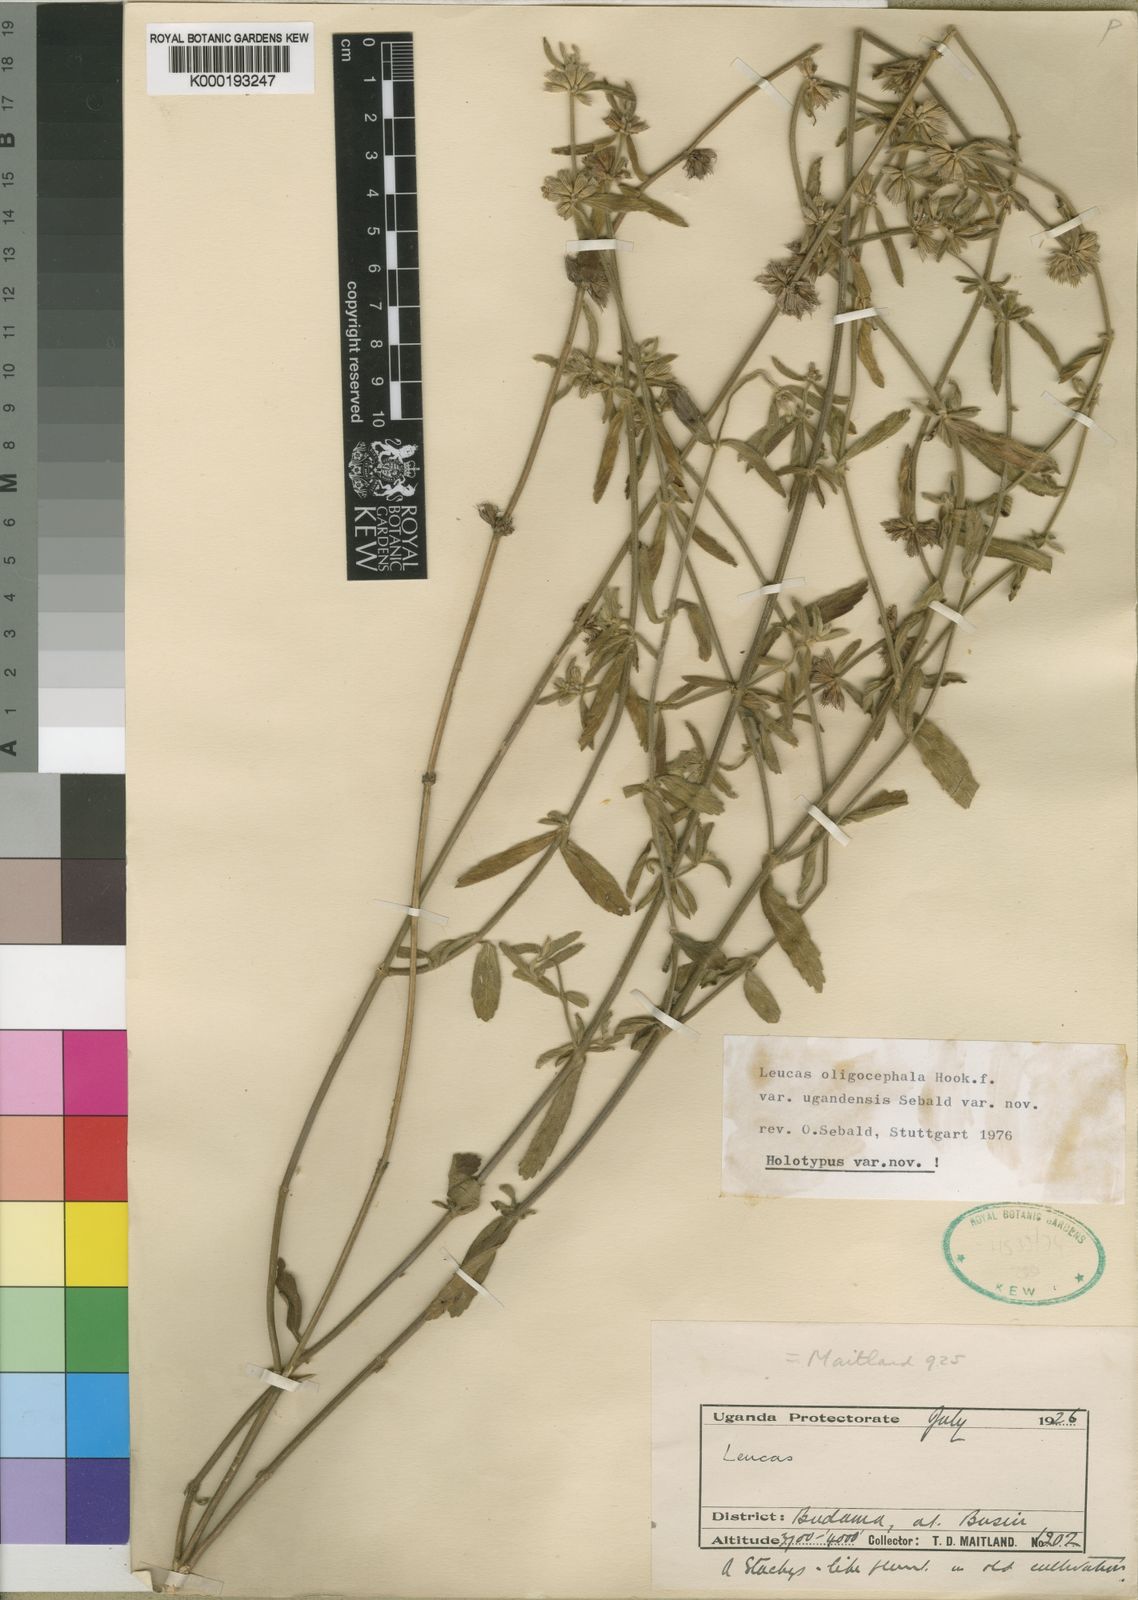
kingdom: Plantae
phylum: Tracheophyta
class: Magnoliopsida
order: Lamiales
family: Lamiaceae
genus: Leucas
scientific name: Leucas oligocephala
